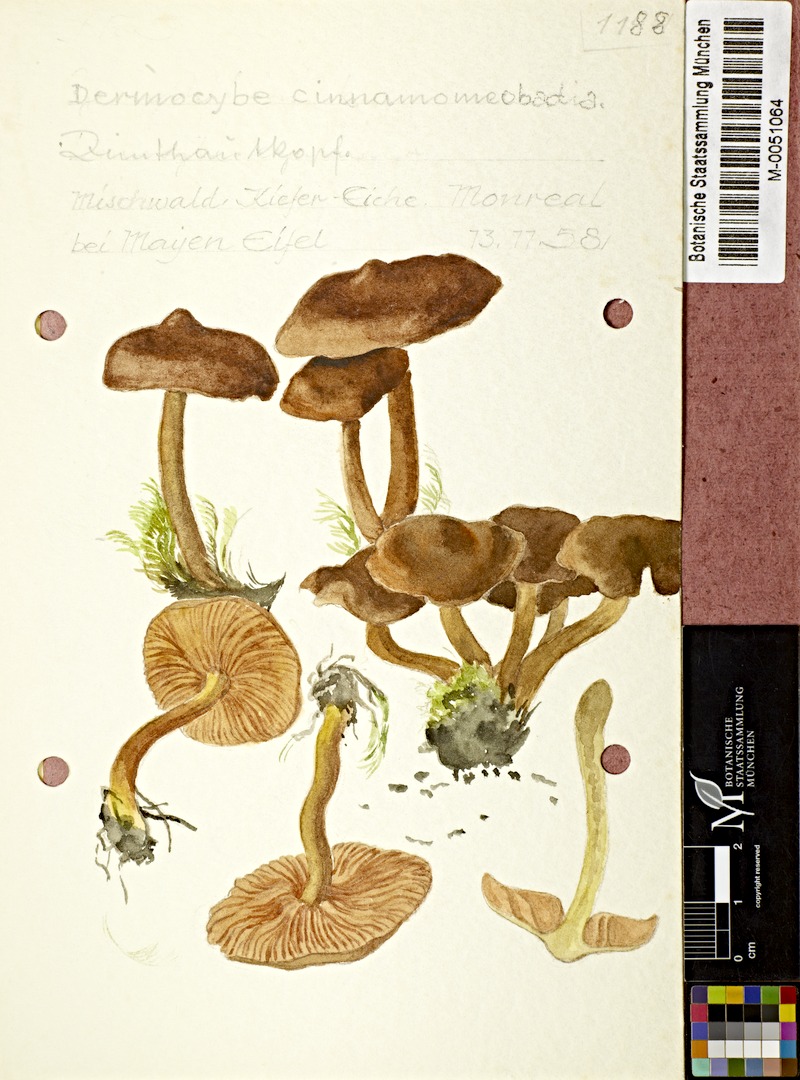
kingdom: Fungi
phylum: Basidiomycota
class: Agaricomycetes
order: Agaricales
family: Cortinariaceae
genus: Cortinarius
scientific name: Cortinarius croceus
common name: Saffron webcap
